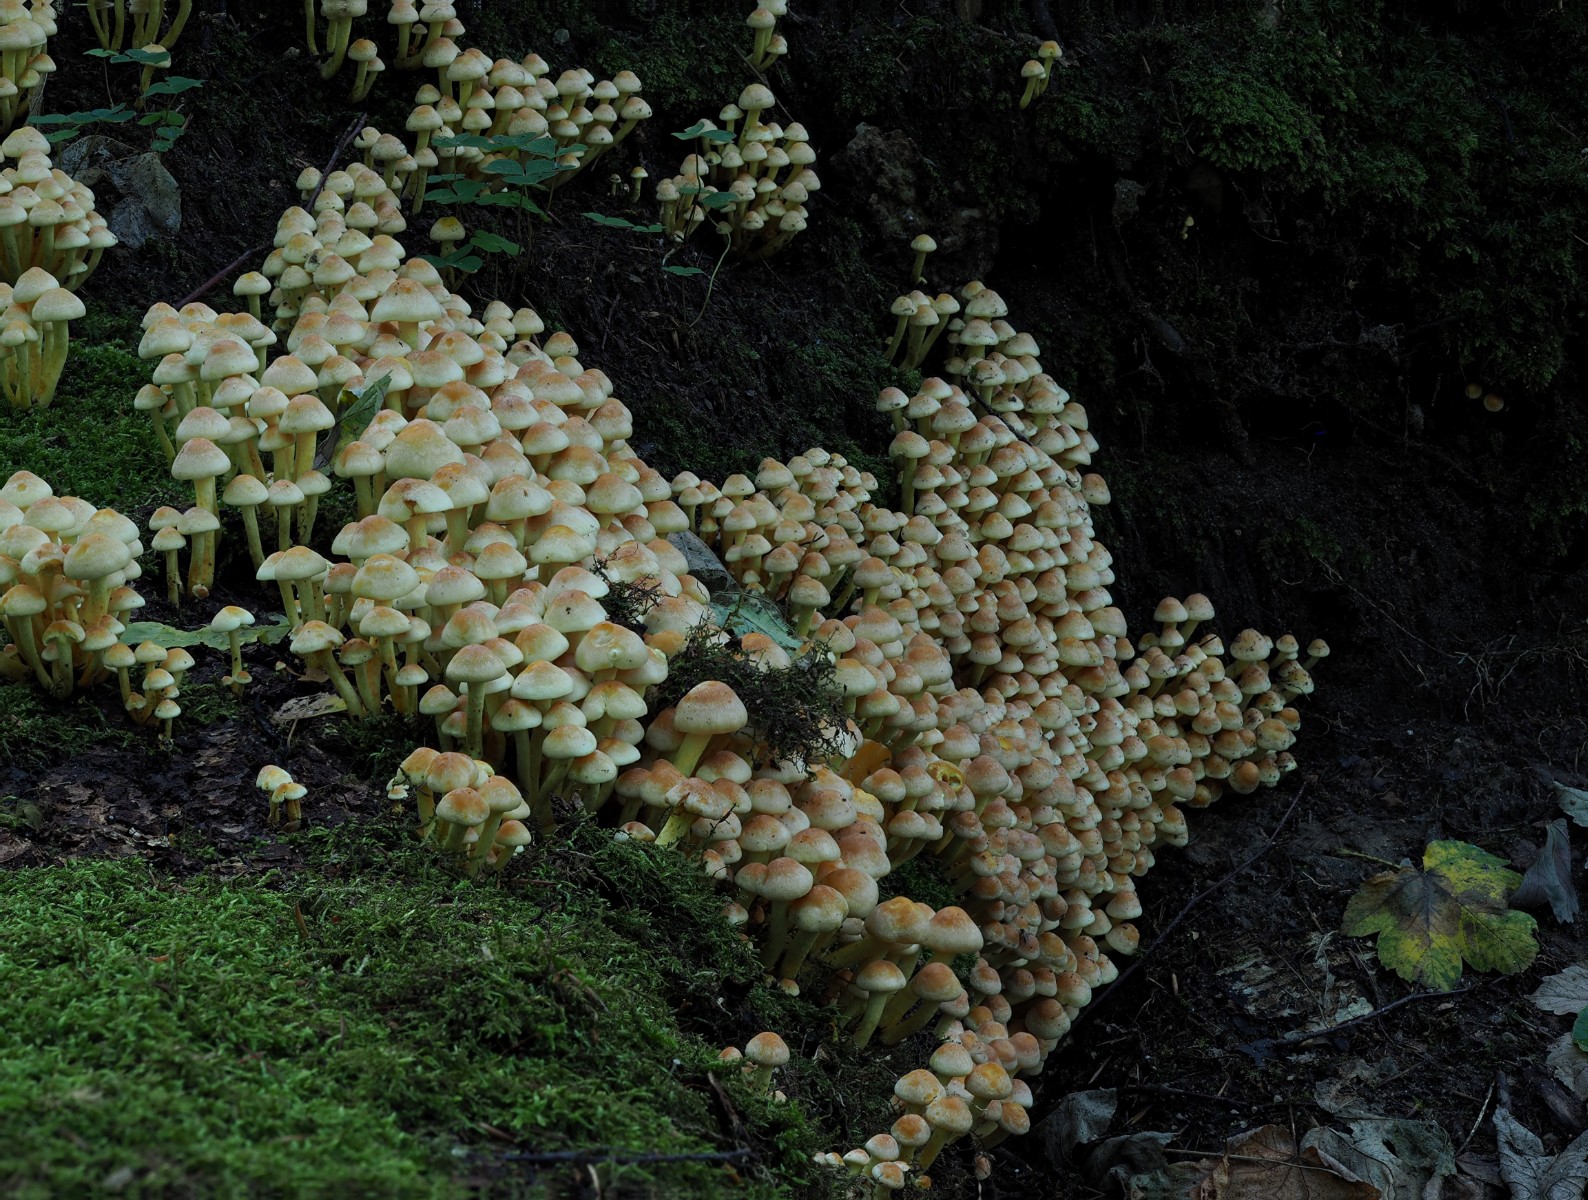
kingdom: Fungi
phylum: Basidiomycota
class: Agaricomycetes
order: Agaricales
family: Strophariaceae
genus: Hypholoma
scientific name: Hypholoma fasciculare
